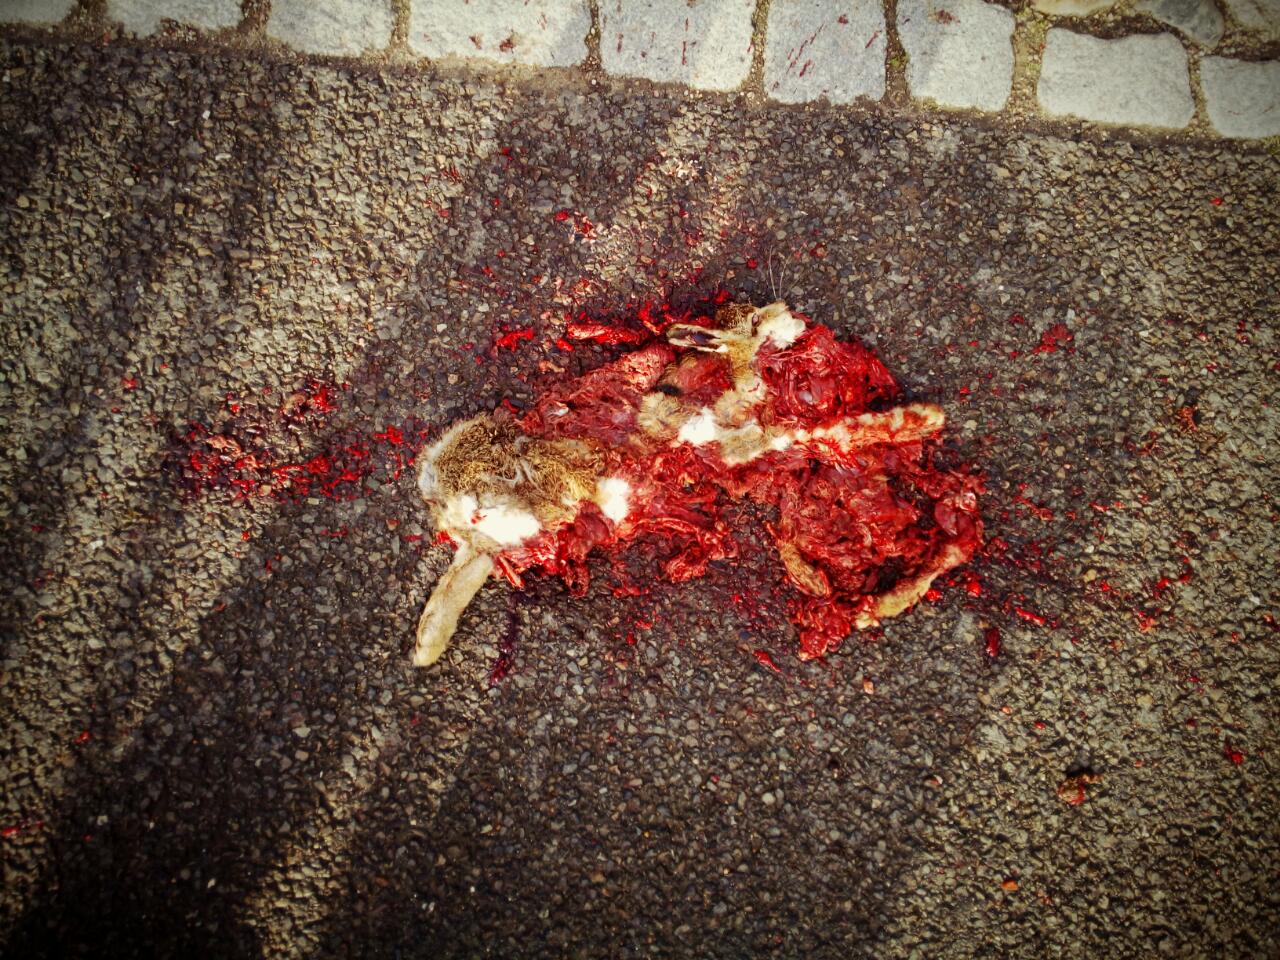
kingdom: Animalia
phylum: Chordata
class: Mammalia
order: Lagomorpha
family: Leporidae
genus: Lepus
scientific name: Lepus europaeus
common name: European hare
